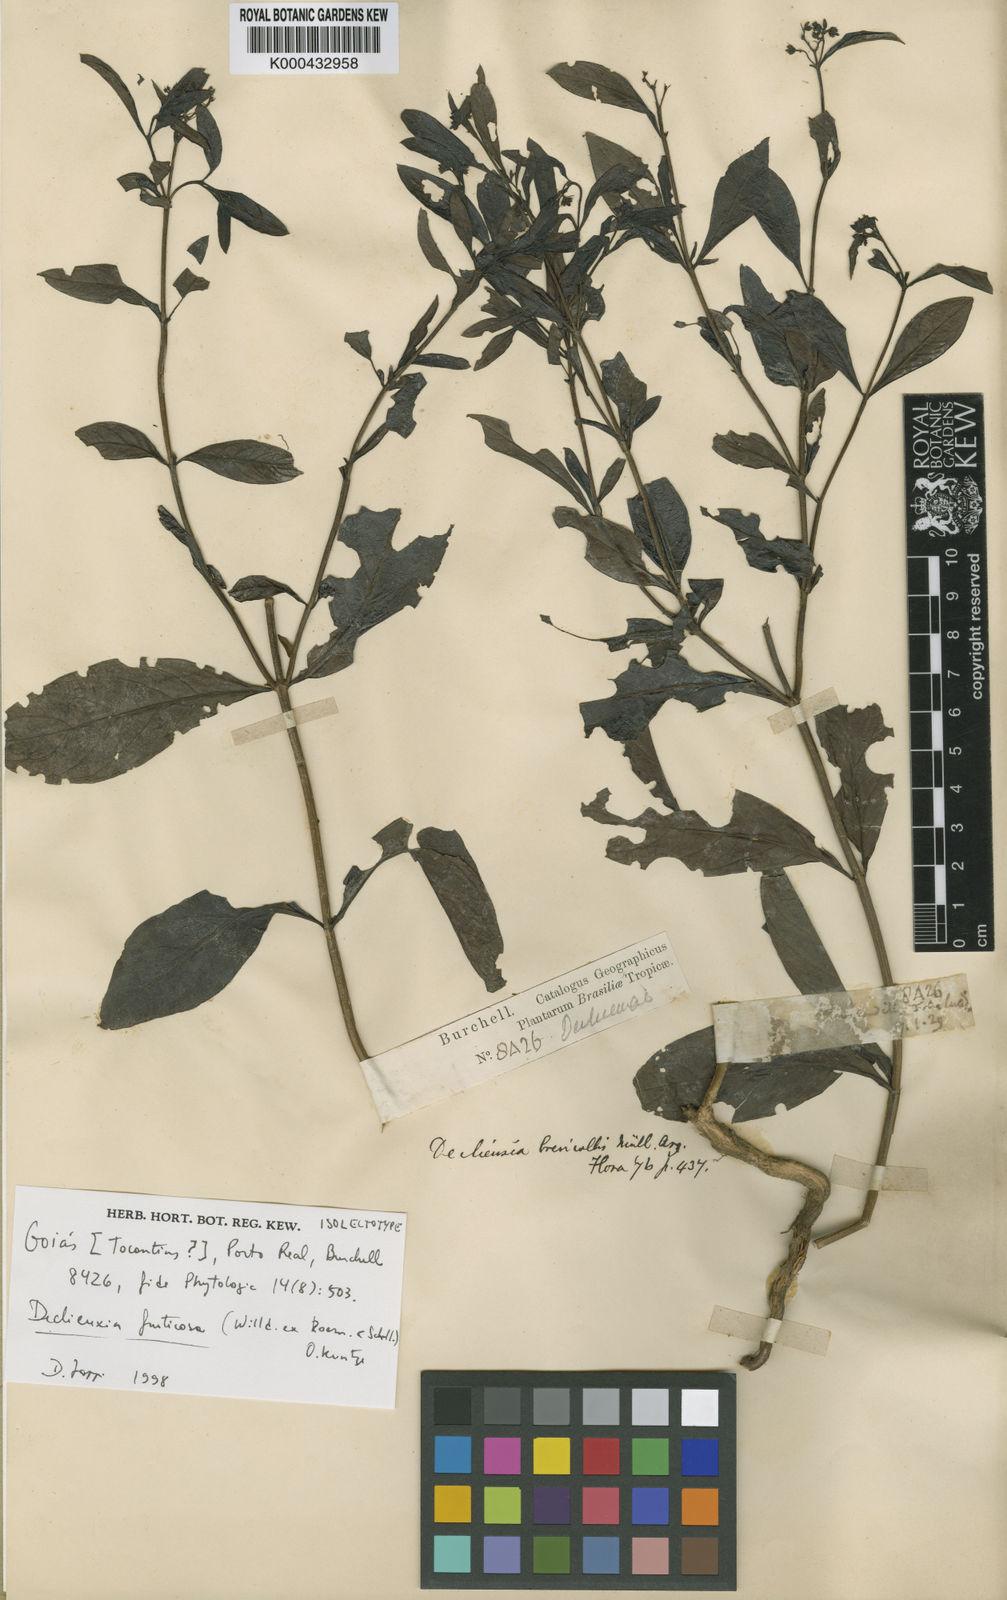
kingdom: Plantae
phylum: Tracheophyta
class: Magnoliopsida
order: Gentianales
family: Rubiaceae
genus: Declieuxia
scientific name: Declieuxia fruticosa
